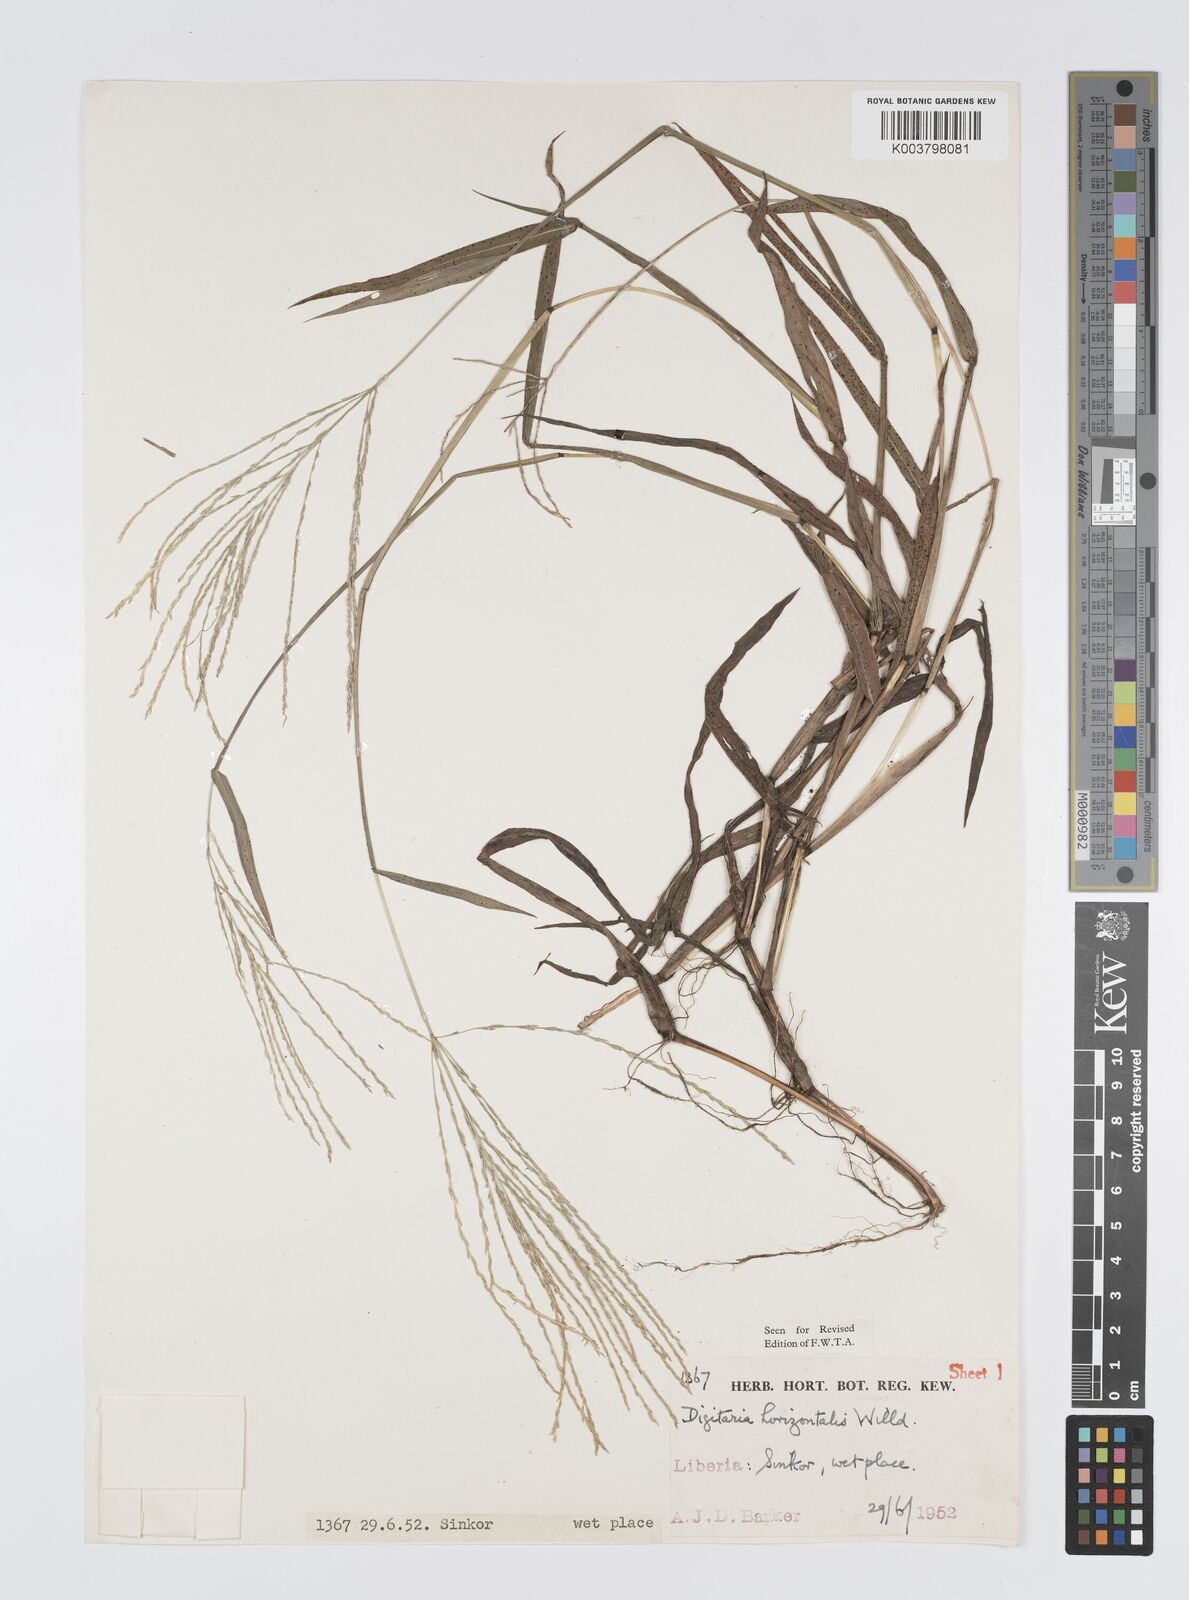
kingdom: Plantae
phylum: Tracheophyta
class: Liliopsida
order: Poales
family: Poaceae
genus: Digitaria
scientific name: Digitaria horizontalis
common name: Jamaican crabgrass
